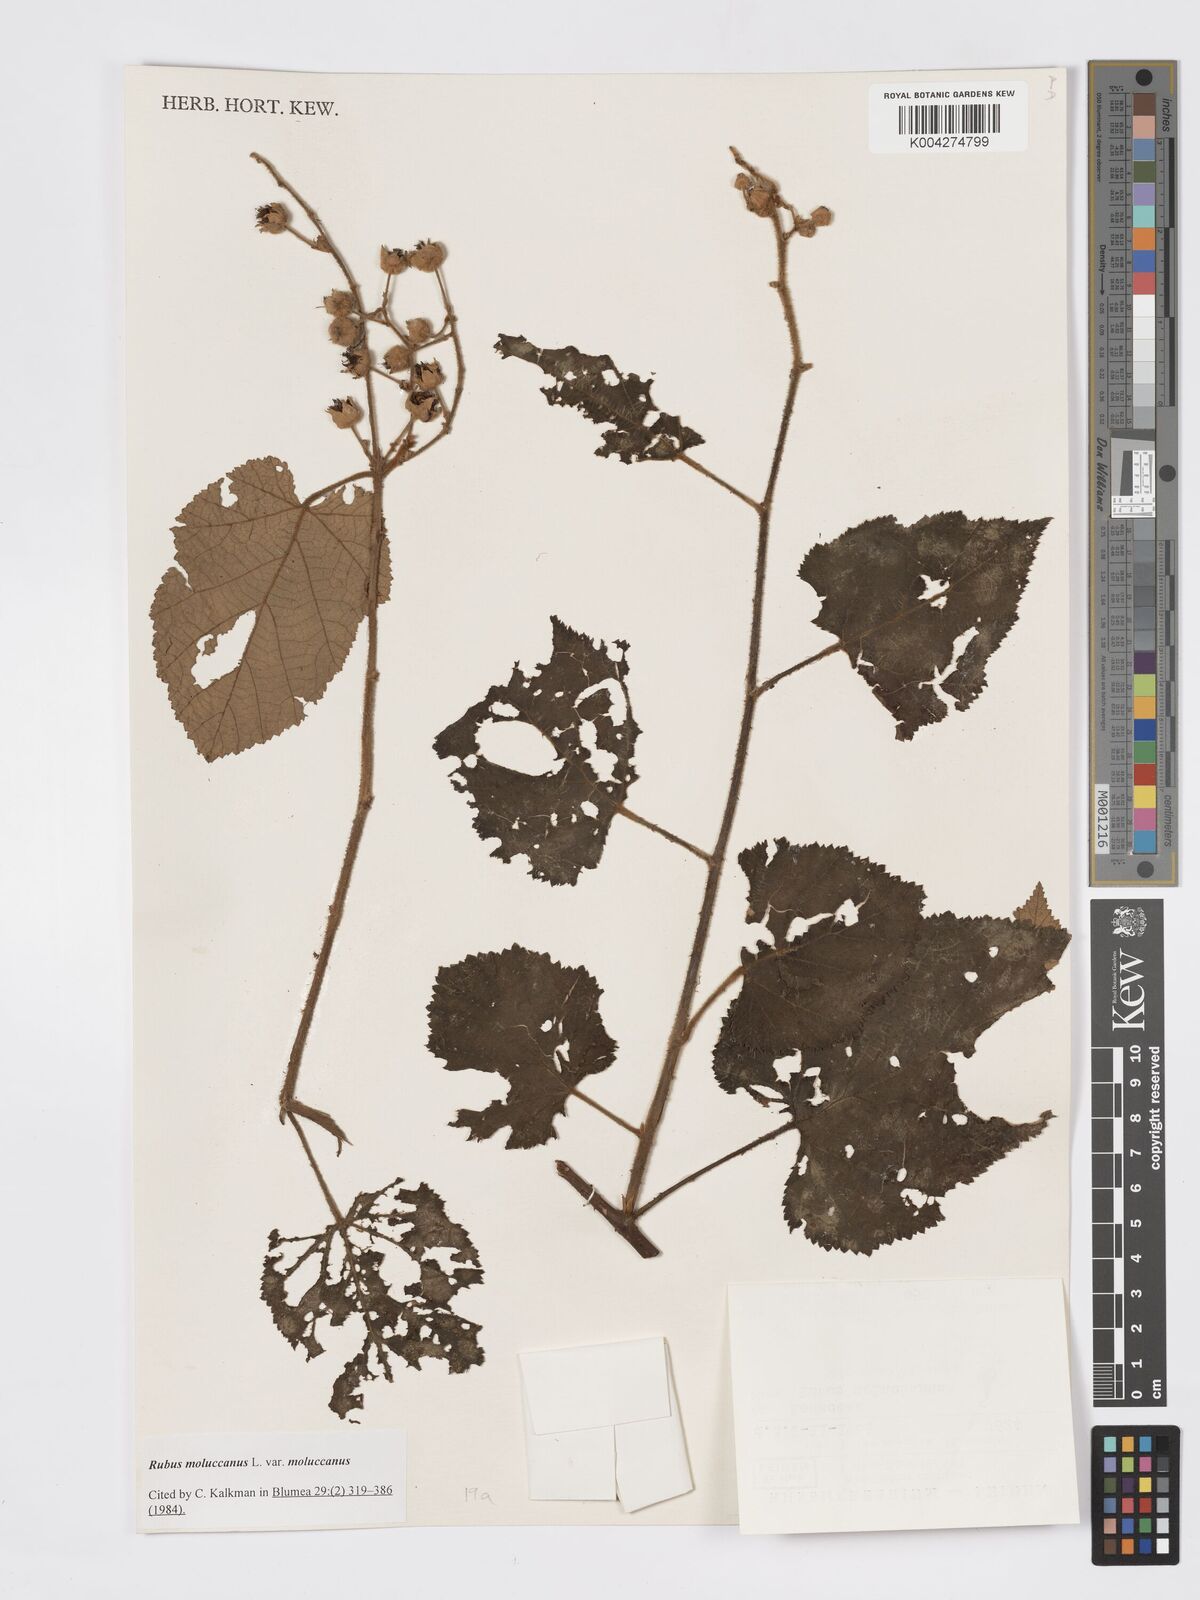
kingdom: Plantae
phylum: Tracheophyta
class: Magnoliopsida
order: Rosales
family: Rosaceae
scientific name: Rosaceae
